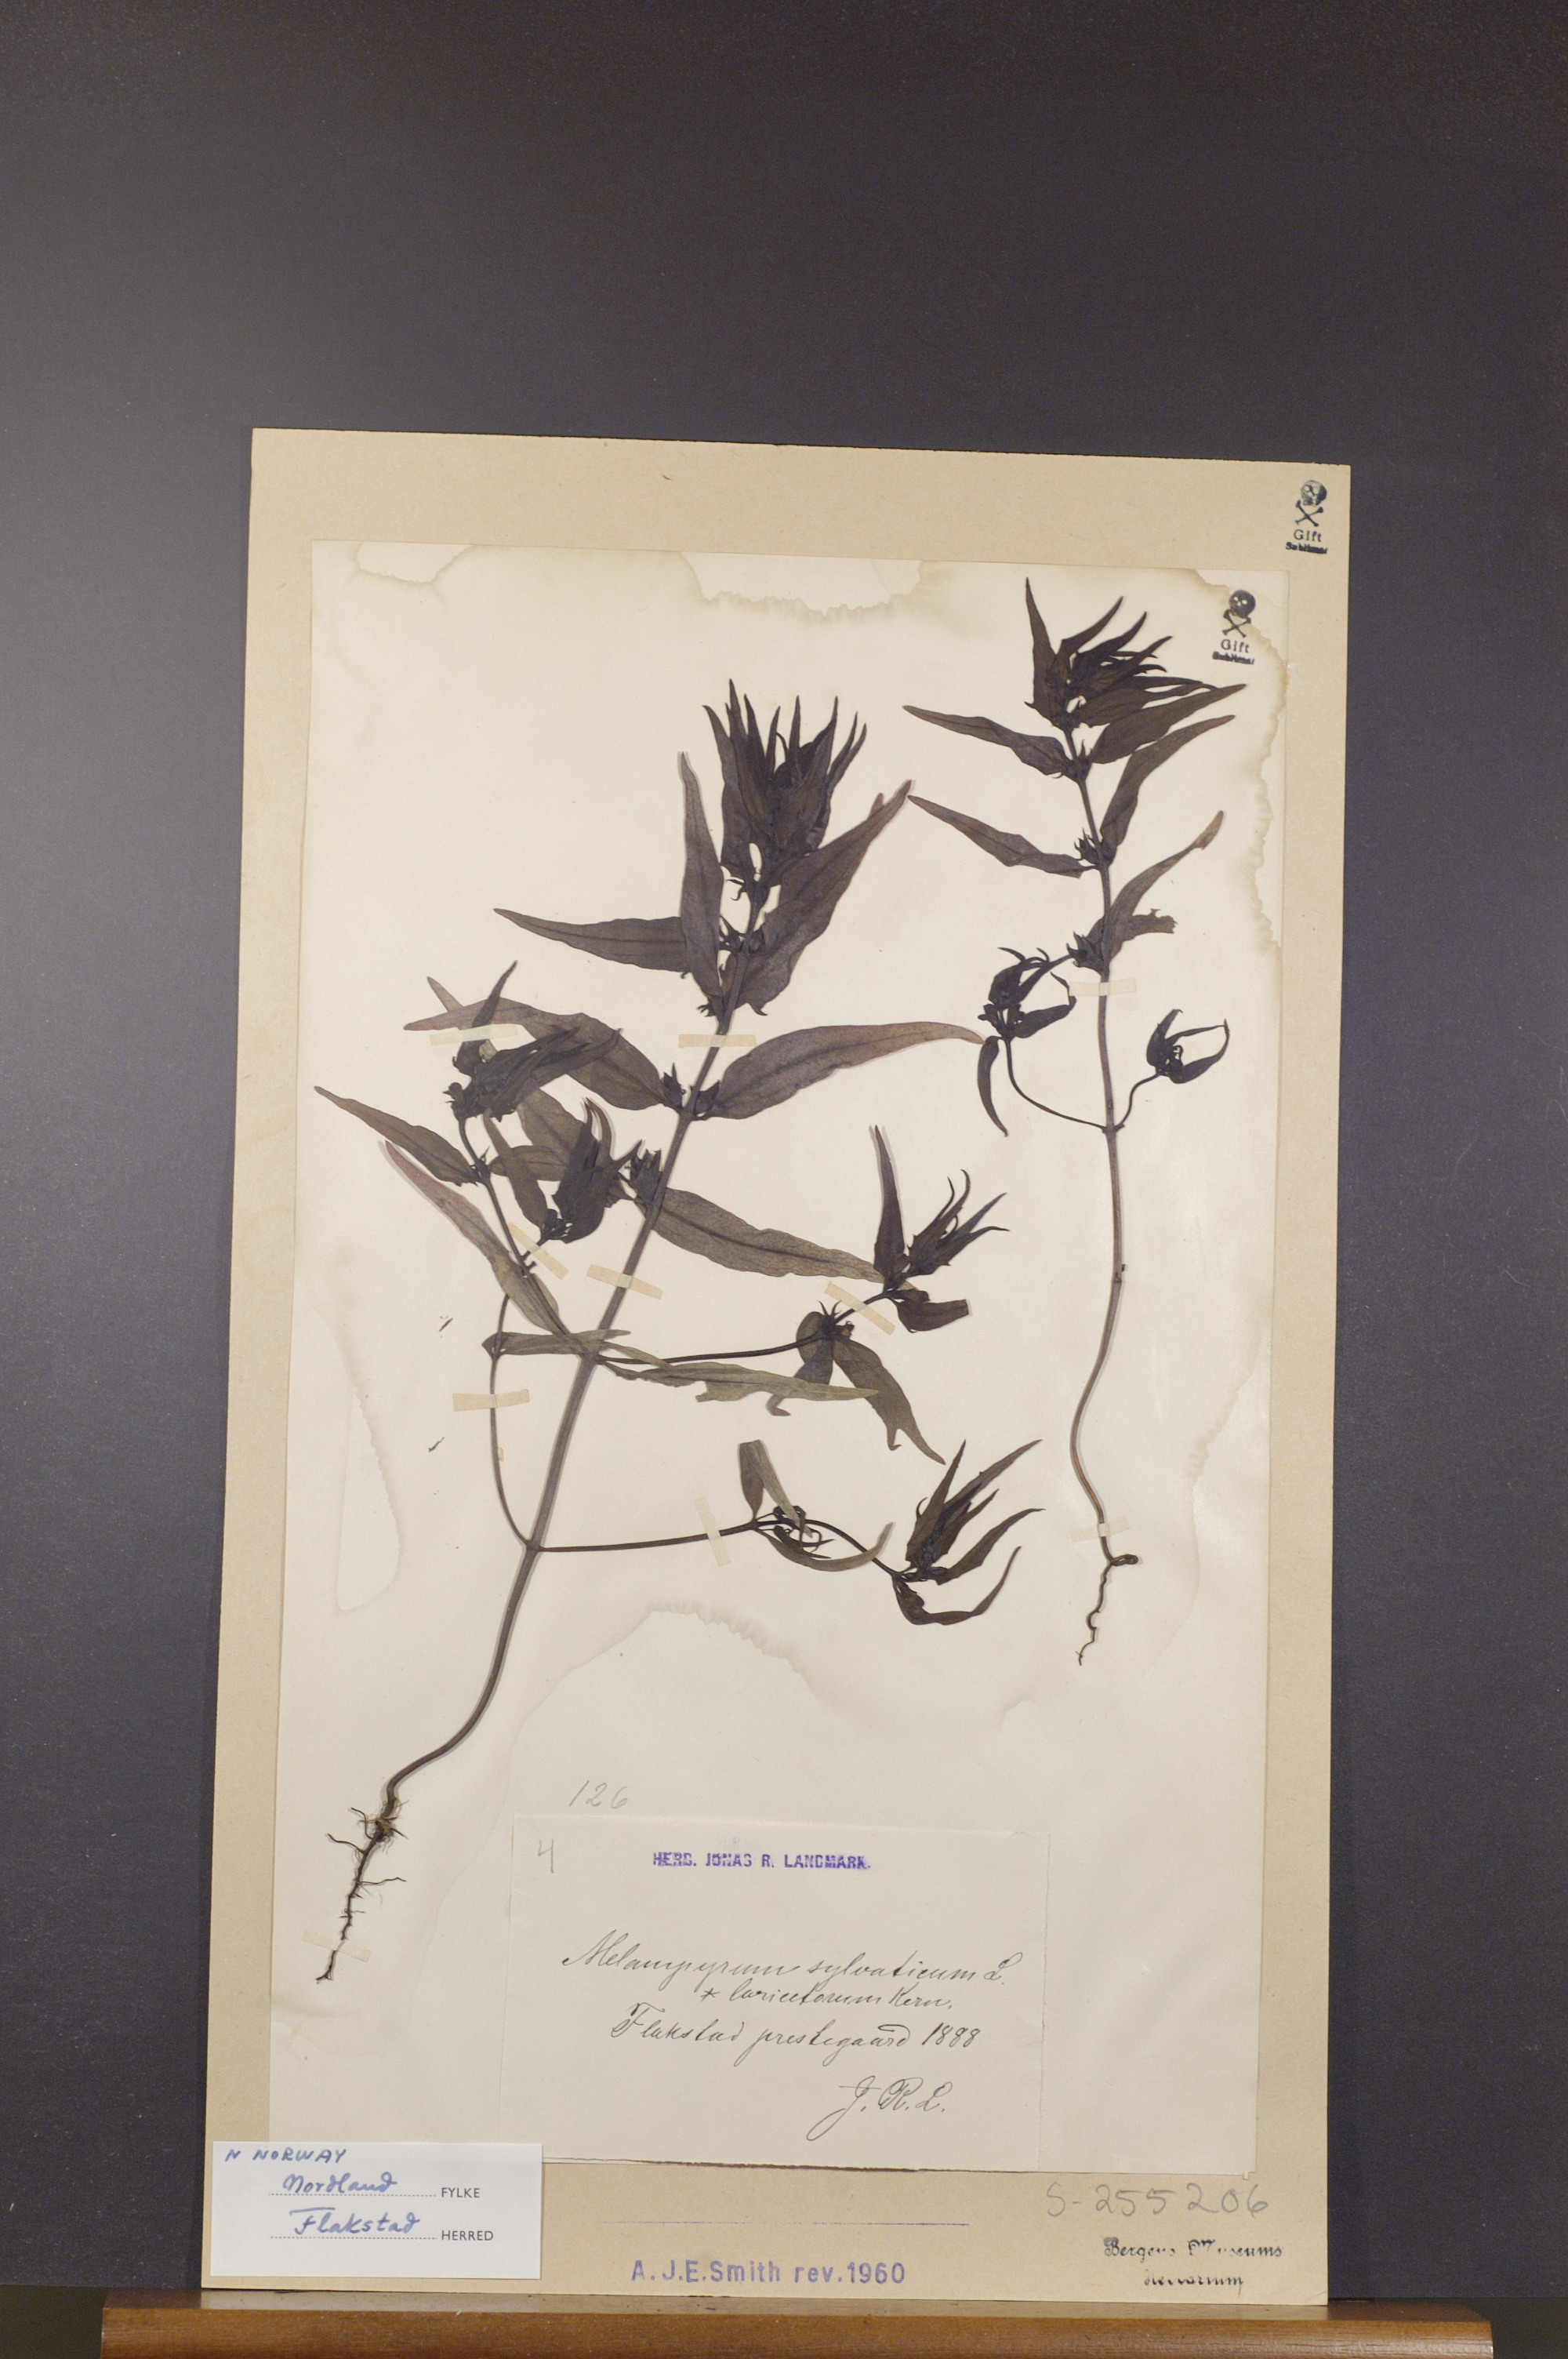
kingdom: Plantae
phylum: Tracheophyta
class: Magnoliopsida
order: Lamiales
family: Orobanchaceae
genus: Melampyrum
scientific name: Melampyrum sylvaticum
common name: Small cow-wheat
